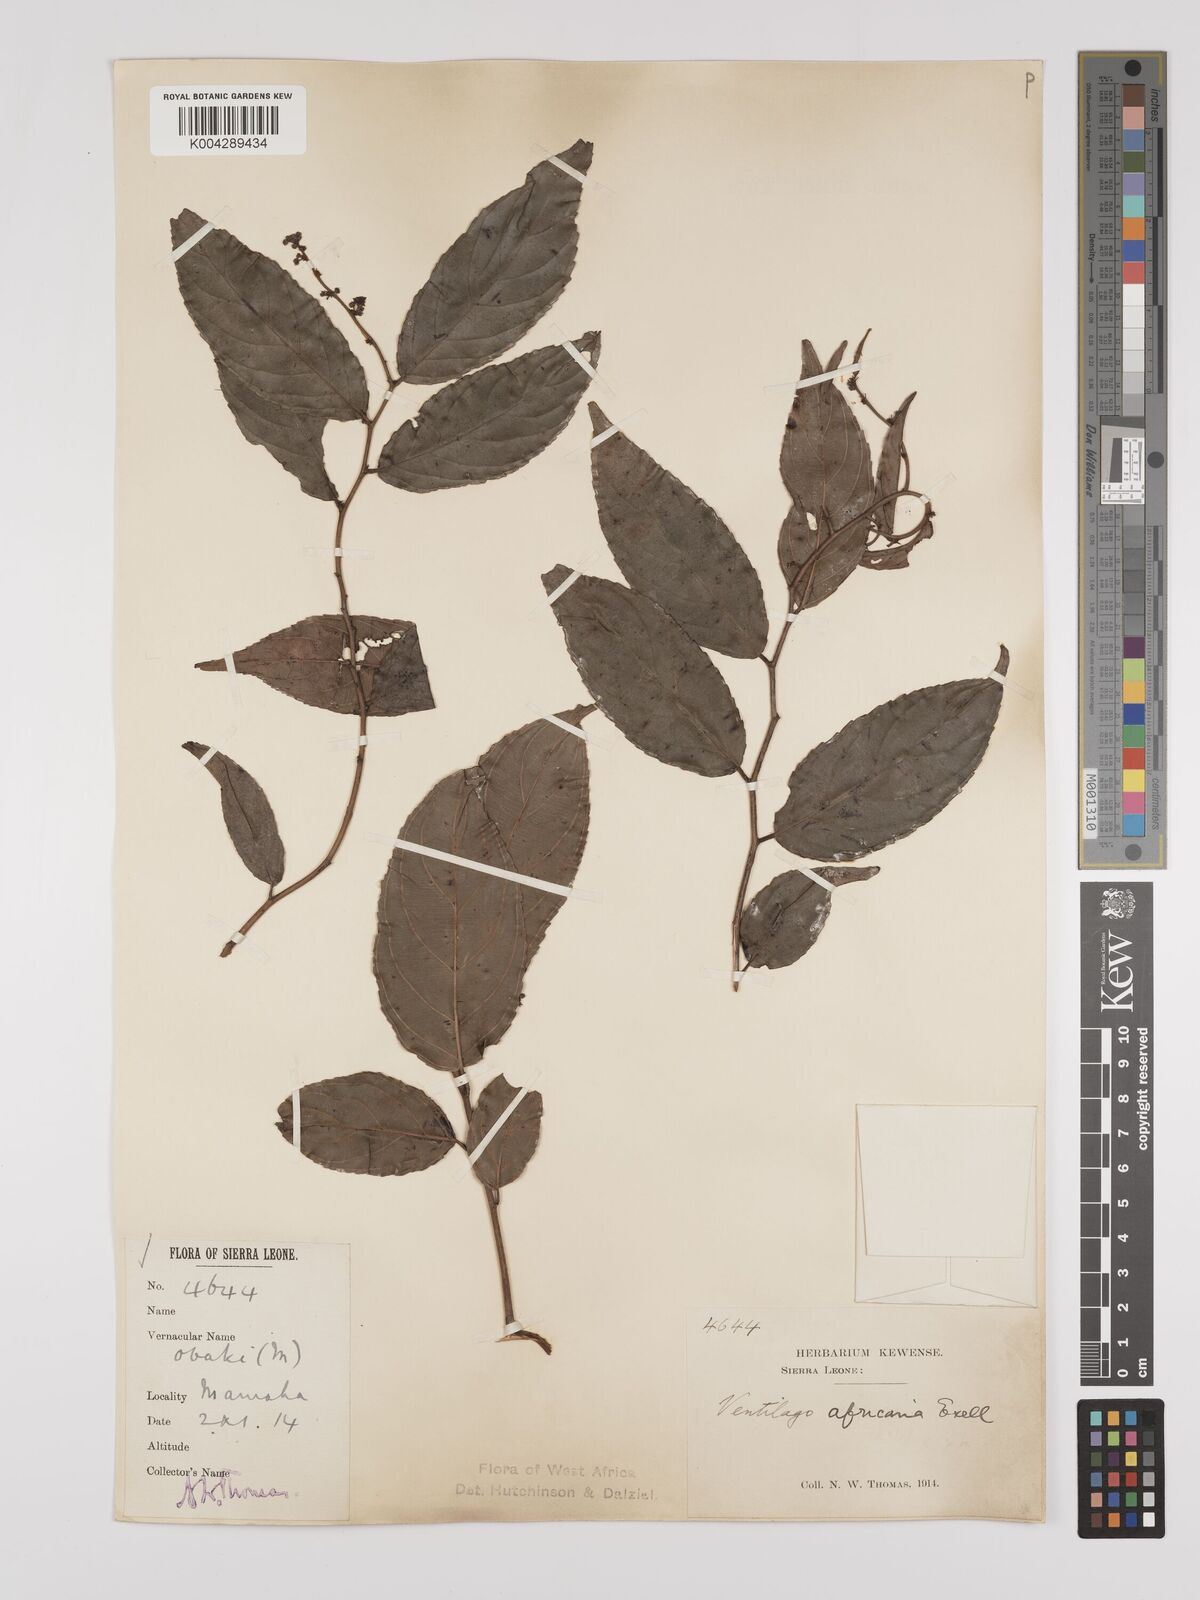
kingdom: Plantae
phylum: Tracheophyta
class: Magnoliopsida
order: Rosales
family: Rhamnaceae
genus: Ventilago
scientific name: Ventilago africana
